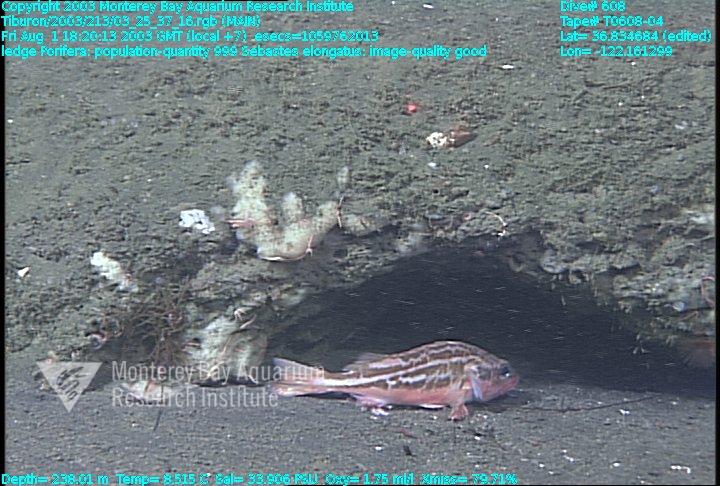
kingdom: Animalia
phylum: Porifera
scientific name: Porifera
